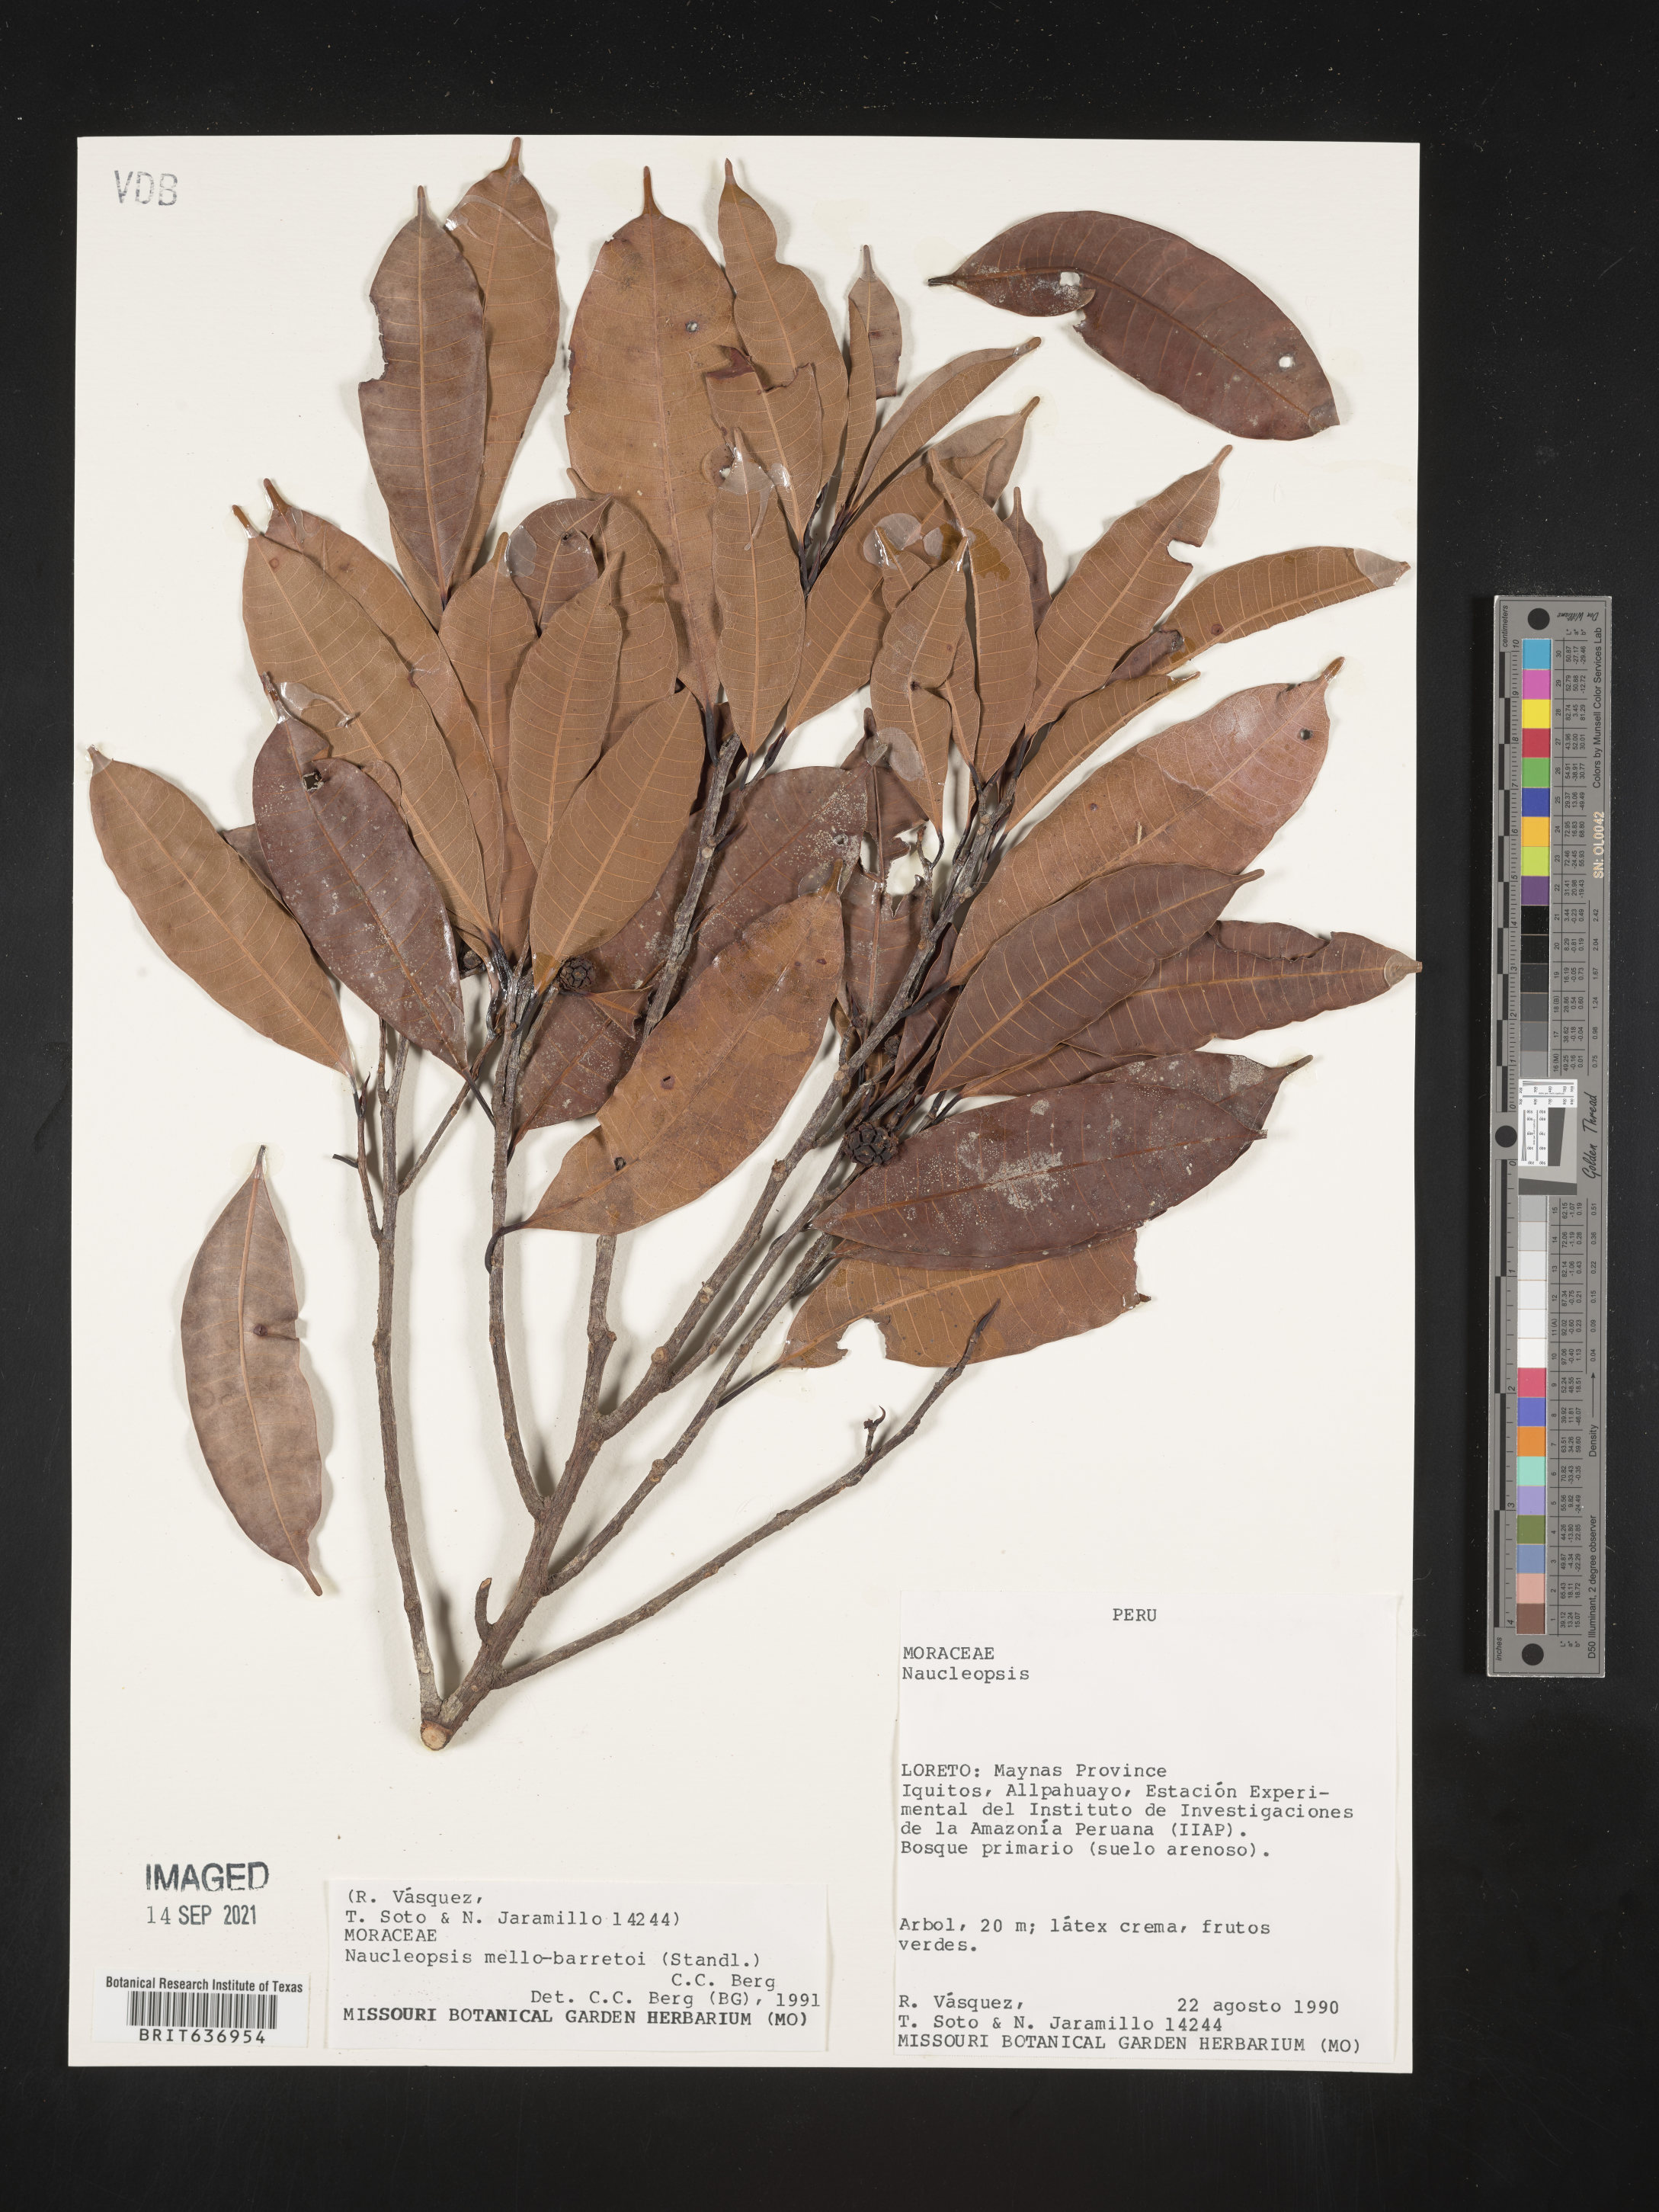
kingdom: Plantae
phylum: Tracheophyta
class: Magnoliopsida
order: Rosales
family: Moraceae
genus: Naucleopsis
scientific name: Naucleopsis
